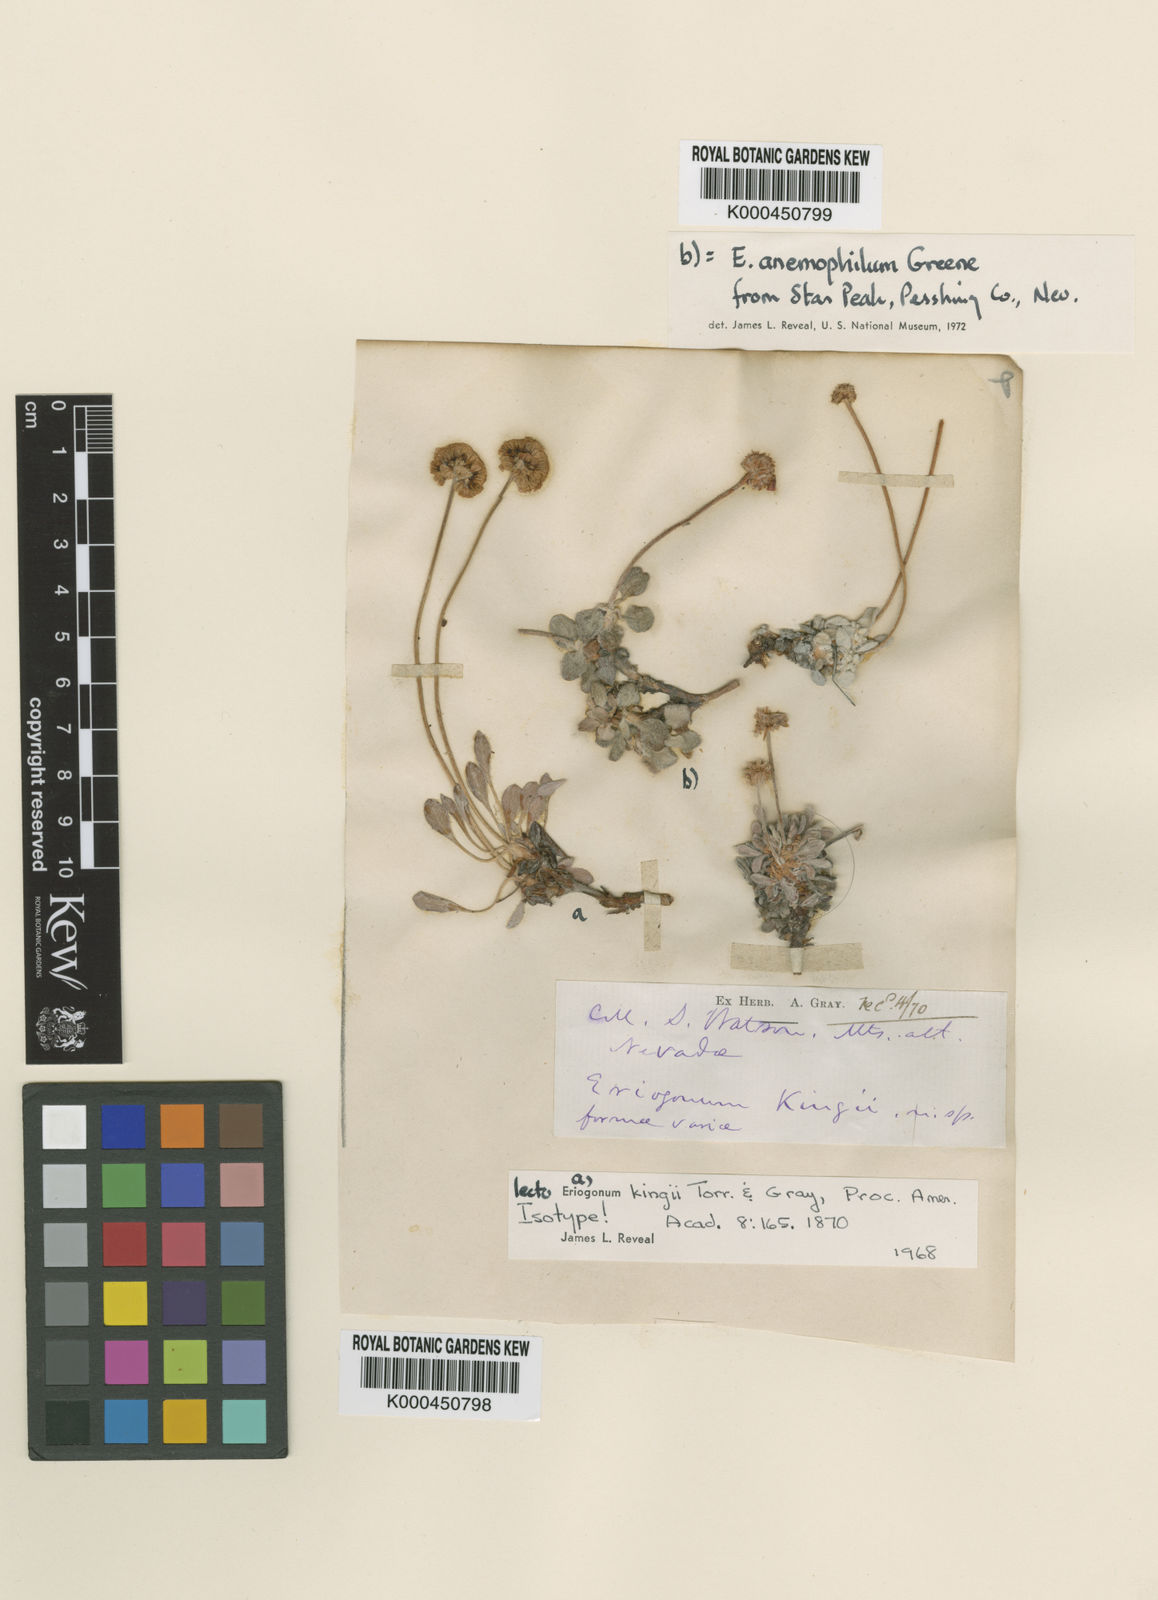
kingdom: Plantae
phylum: Tracheophyta
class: Magnoliopsida
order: Caryophyllales
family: Polygonaceae
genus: Eriogonum
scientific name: Eriogonum kingii
